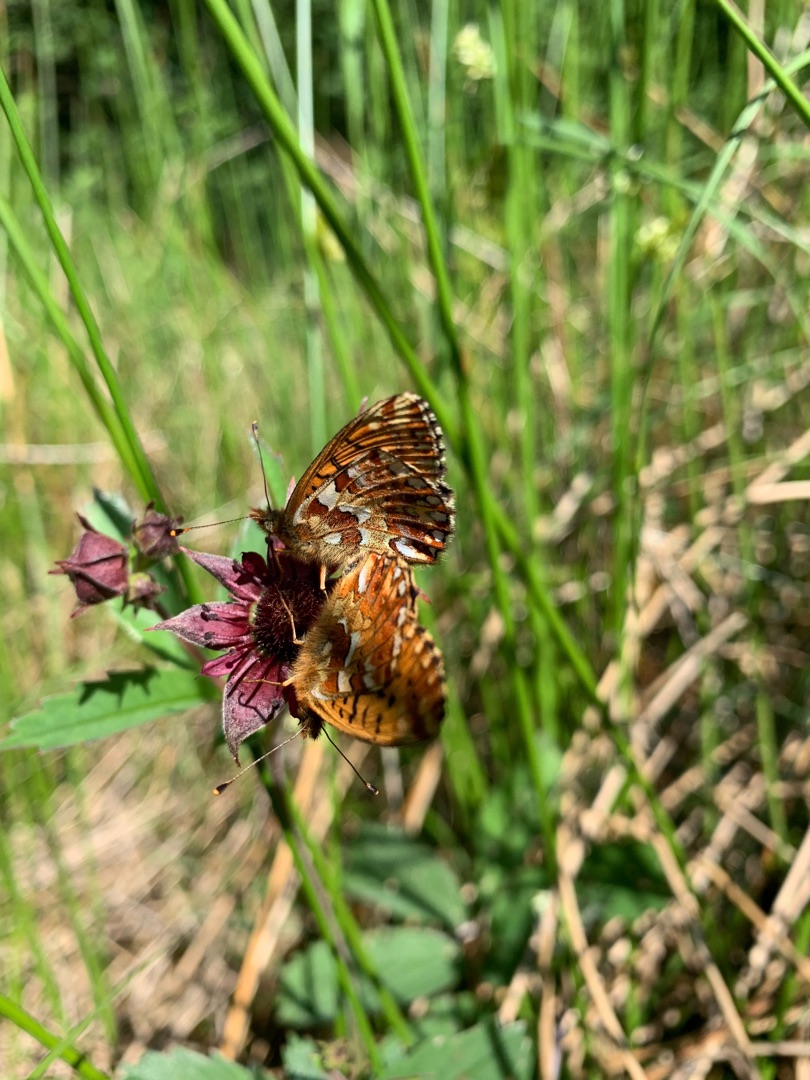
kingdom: Animalia
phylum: Arthropoda
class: Insecta
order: Lepidoptera
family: Nymphalidae
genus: Boloria
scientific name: Boloria aquilonaris
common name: Moseperlemorsommerfugl
